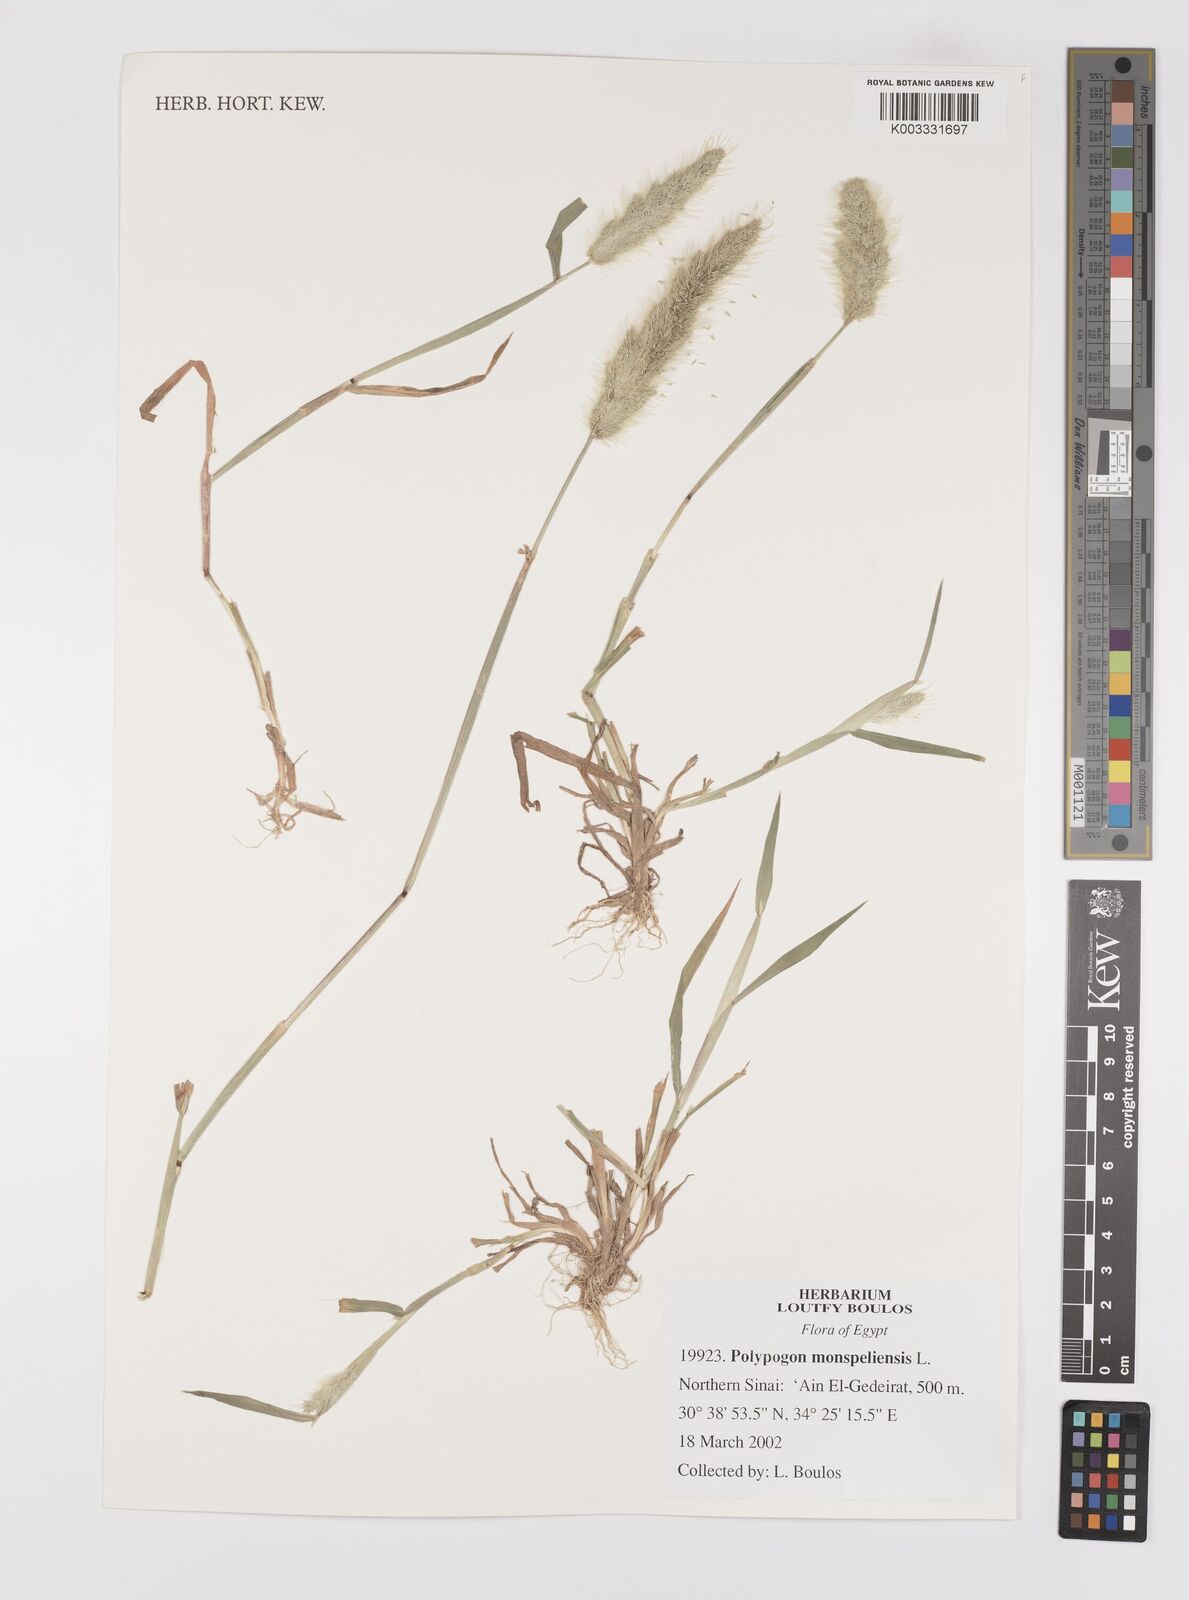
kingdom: Plantae
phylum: Tracheophyta
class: Liliopsida
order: Poales
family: Poaceae
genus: Polypogon
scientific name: Polypogon monspeliensis
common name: Annual rabbitsfoot grass
